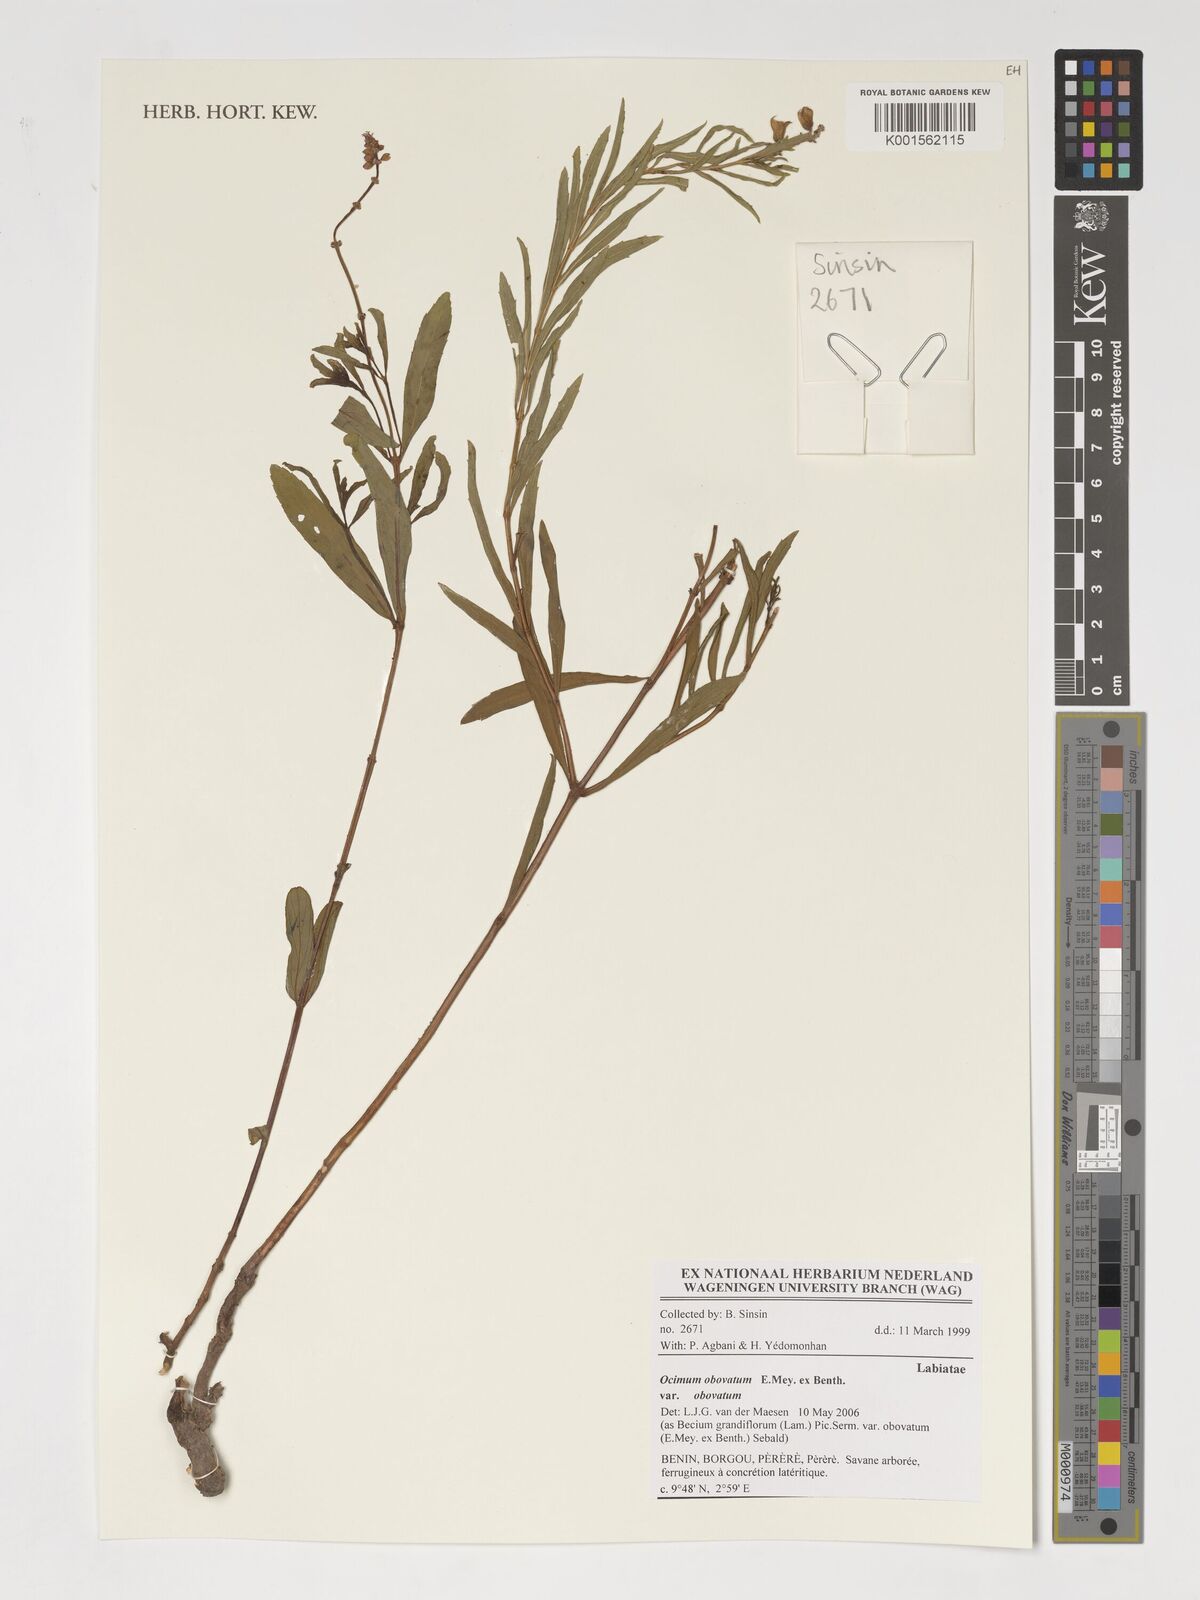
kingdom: Plantae
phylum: Tracheophyta
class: Magnoliopsida
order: Lamiales
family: Lamiaceae
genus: Ocimum
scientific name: Ocimum obovatum
